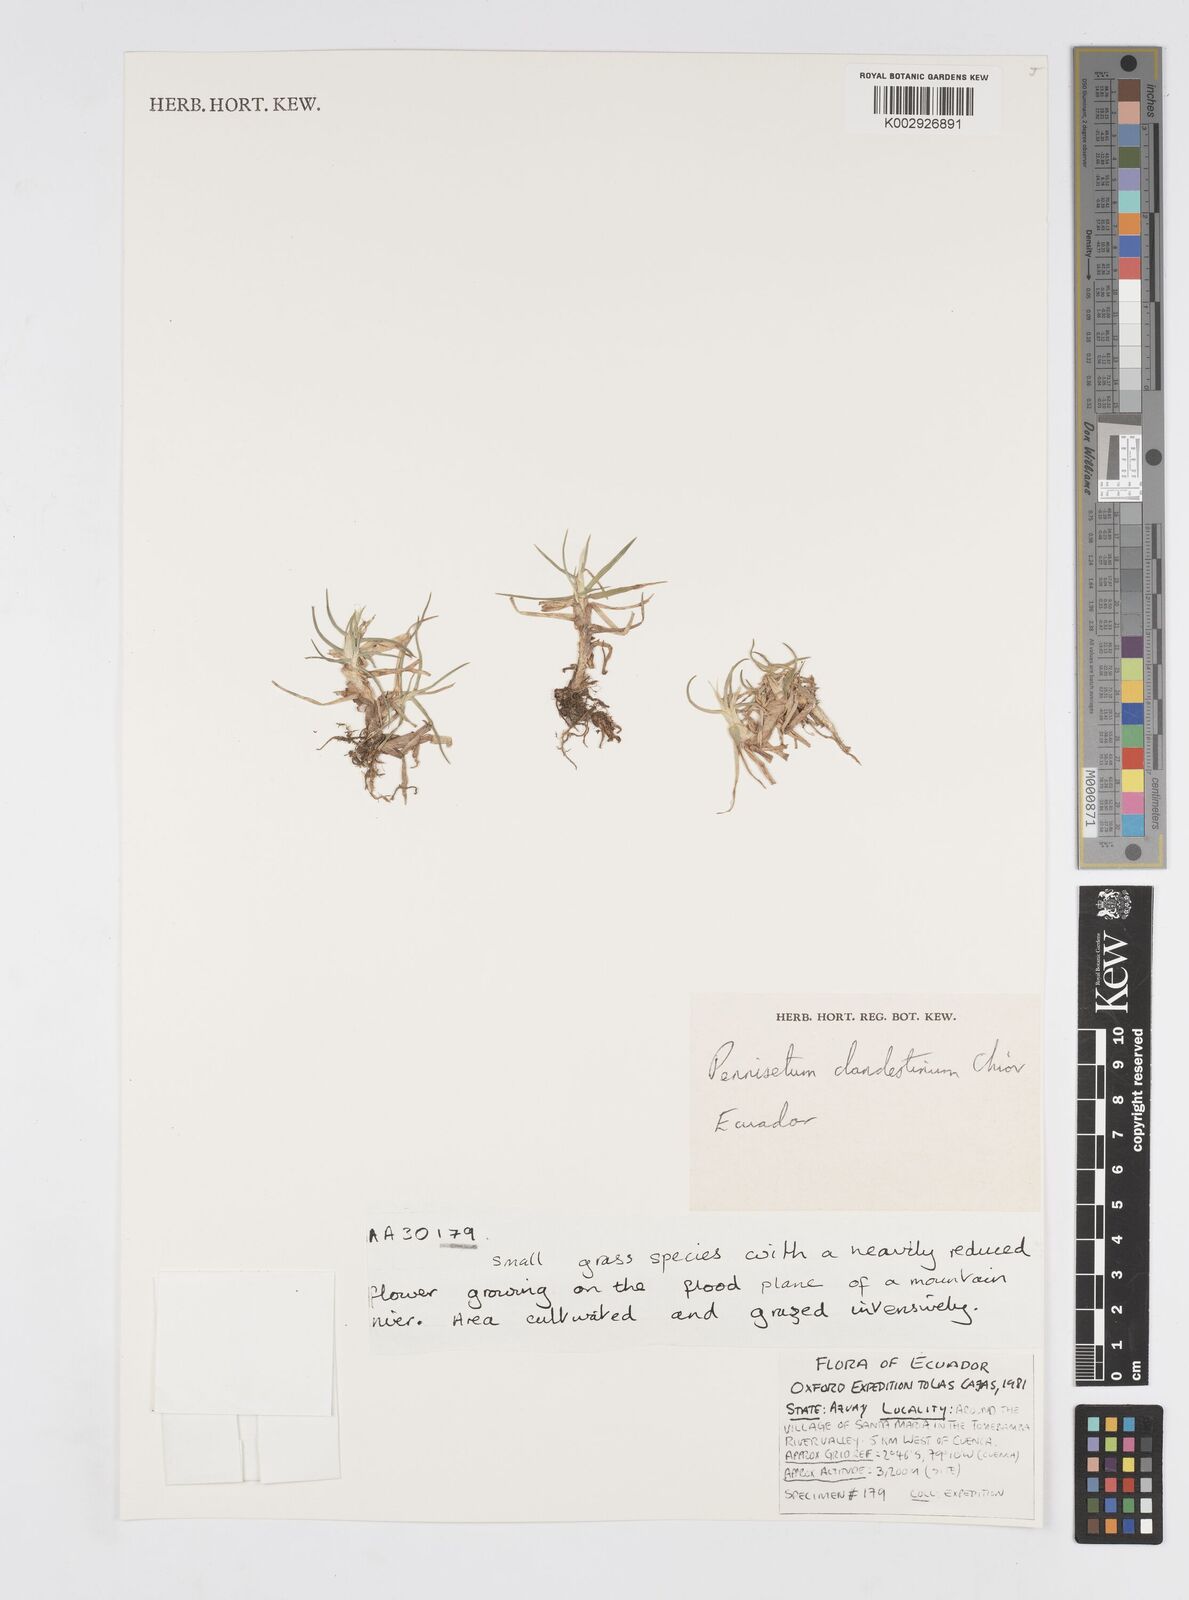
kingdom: Plantae
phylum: Tracheophyta
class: Liliopsida
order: Poales
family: Poaceae
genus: Cenchrus
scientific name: Cenchrus clandestinus
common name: Kikuyugrass
